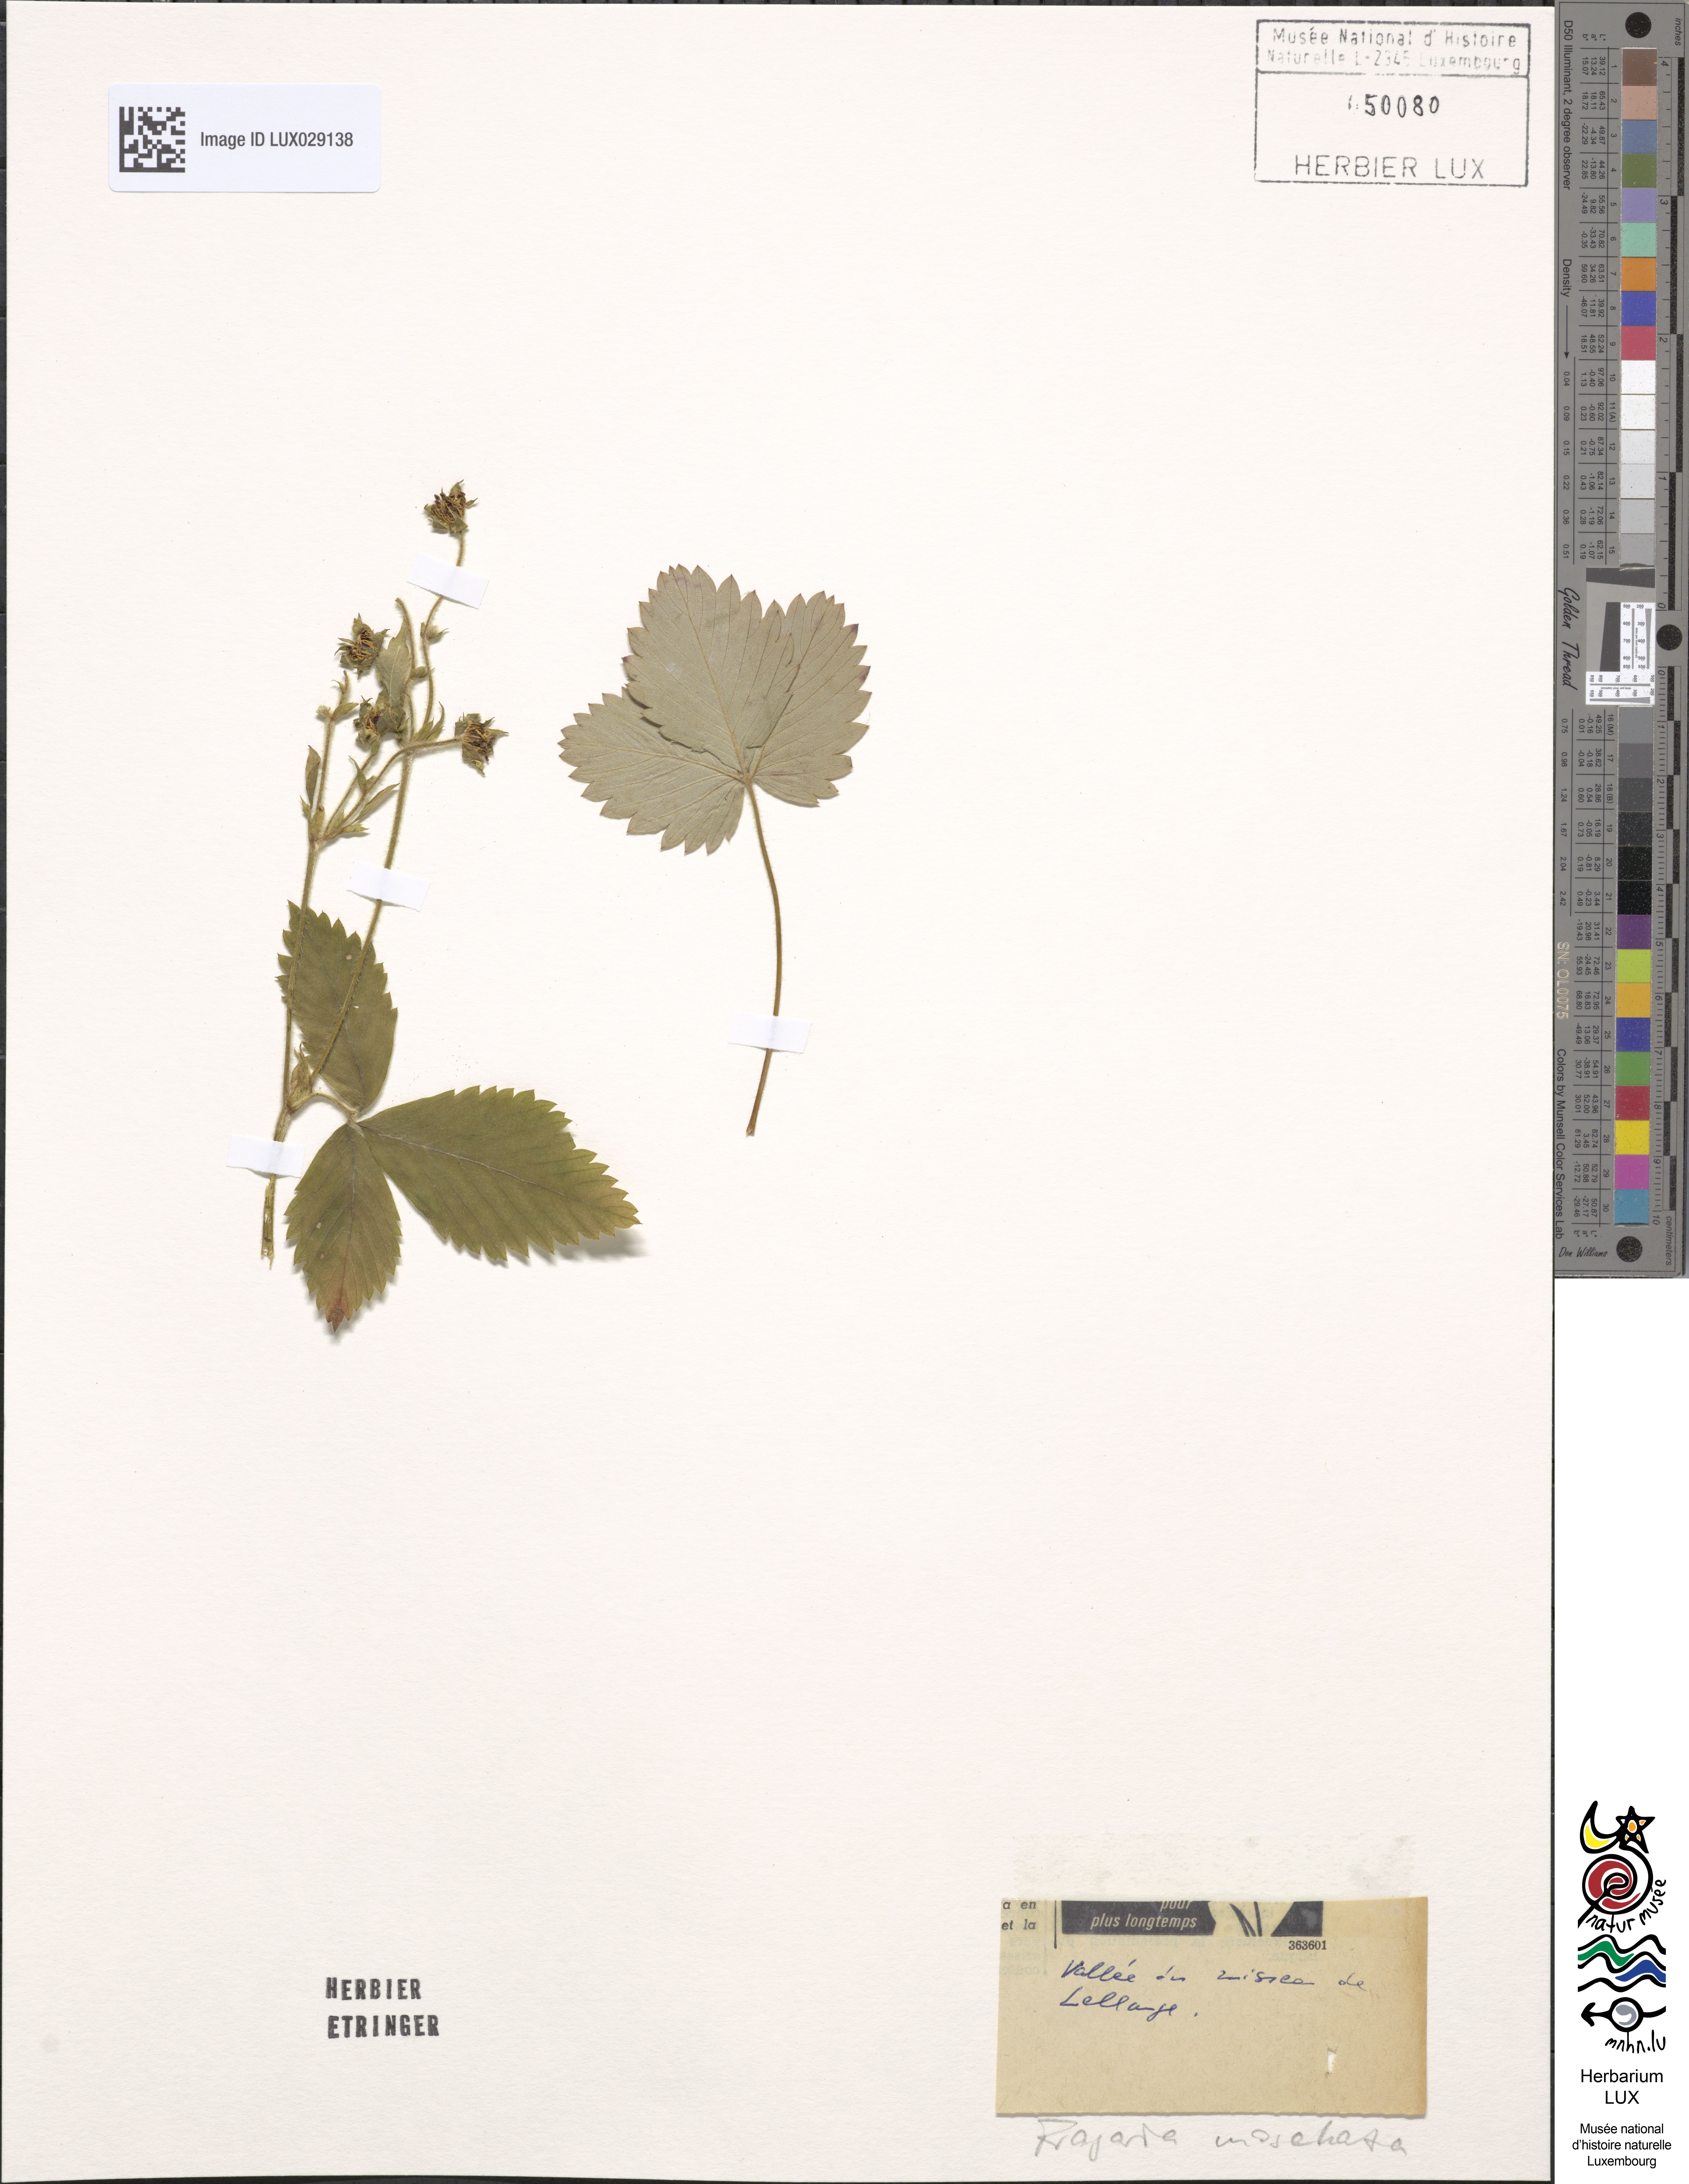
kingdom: Plantae
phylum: Tracheophyta
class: Magnoliopsida
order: Rosales
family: Rosaceae
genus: Fragaria
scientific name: Fragaria moschata
